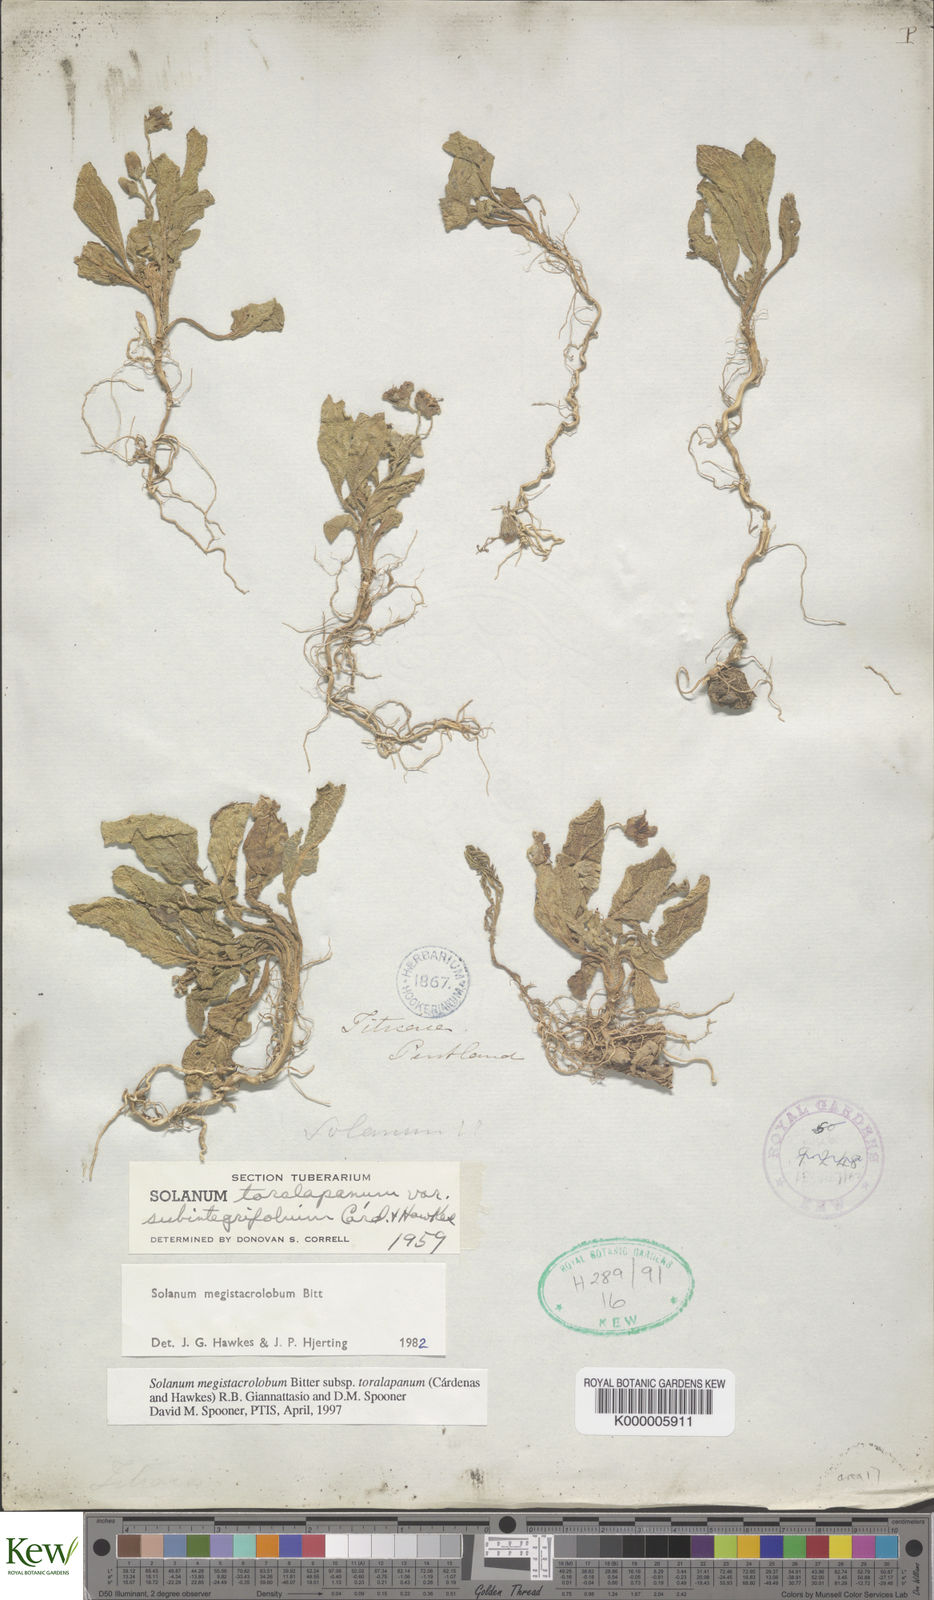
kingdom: Plantae
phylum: Tracheophyta
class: Magnoliopsida
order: Solanales
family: Solanaceae
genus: Solanum
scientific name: Solanum boliviense
